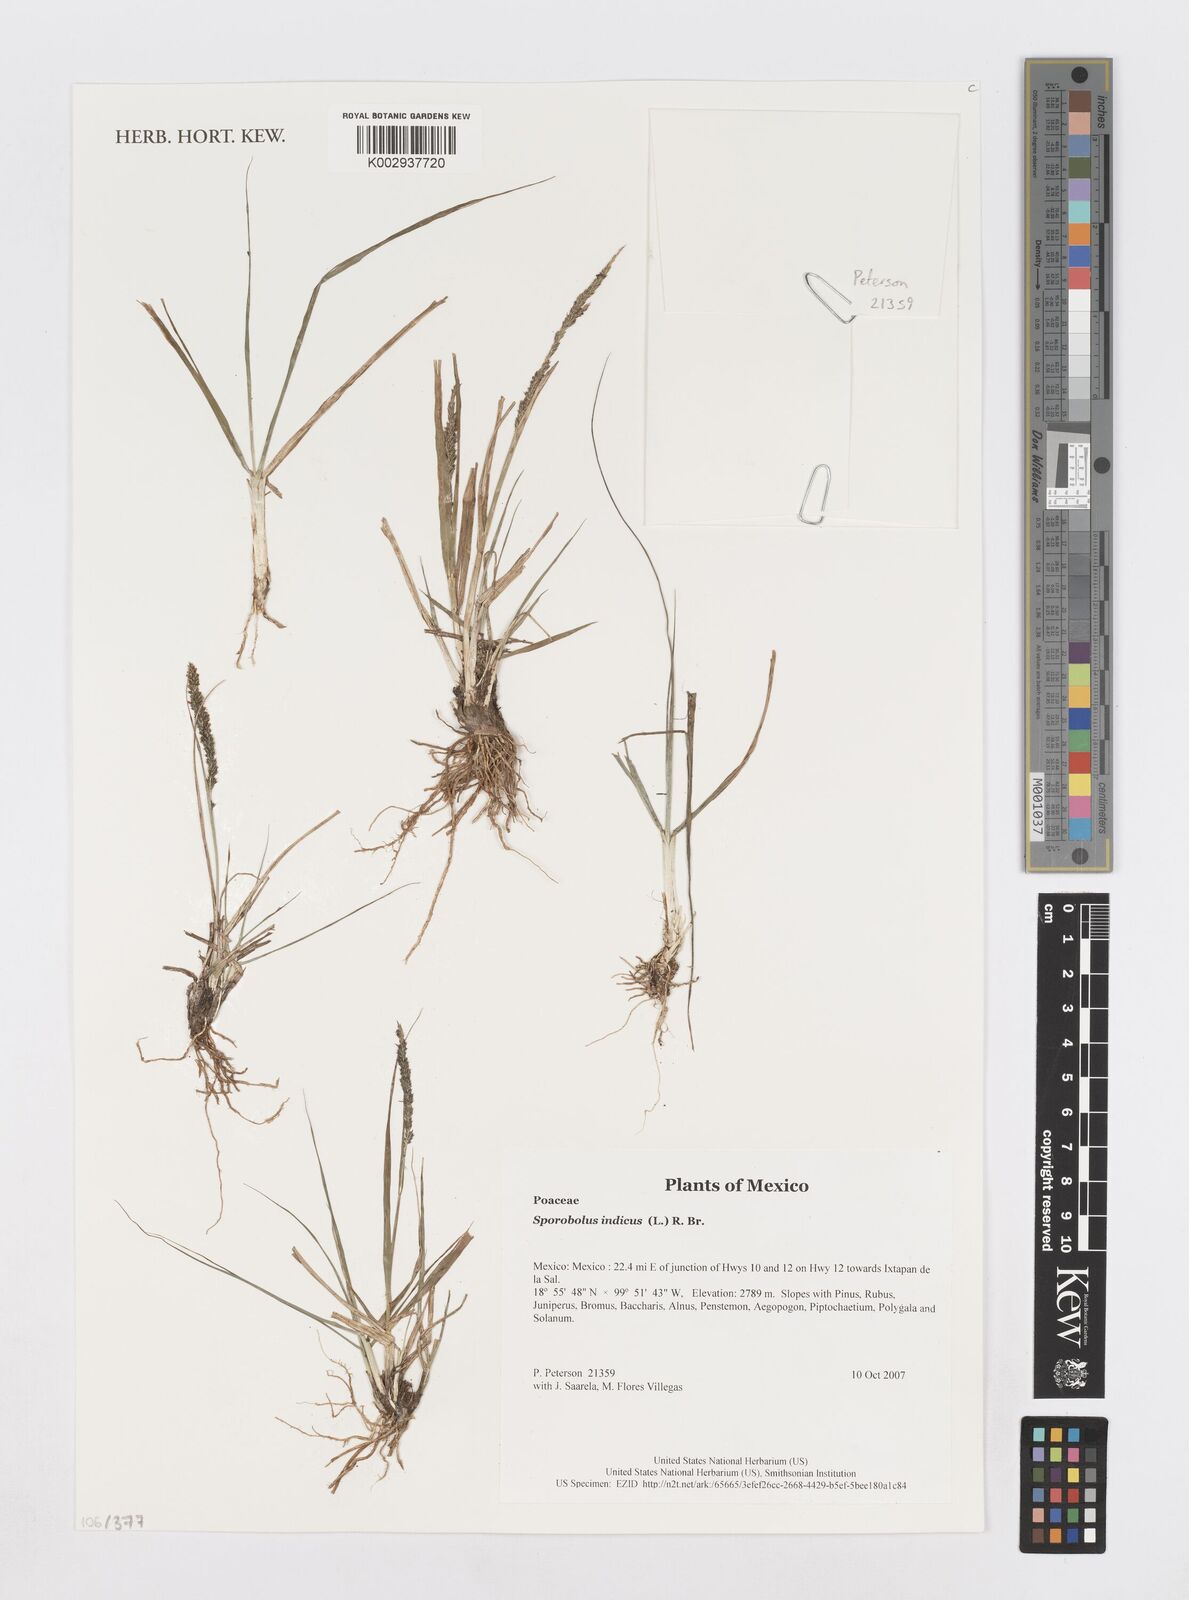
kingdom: Plantae
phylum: Tracheophyta
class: Liliopsida
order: Poales
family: Poaceae
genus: Sporobolus
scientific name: Sporobolus junceus
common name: Lizard grass
